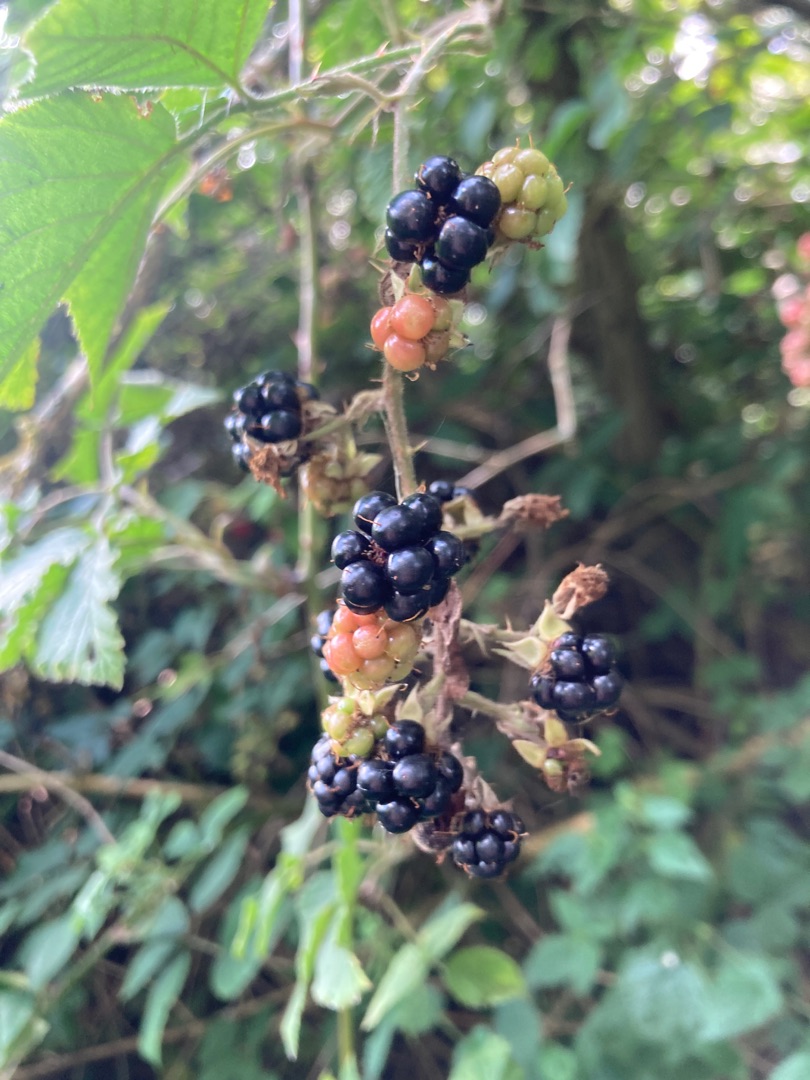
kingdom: Plantae
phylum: Tracheophyta
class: Magnoliopsida
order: Rosales
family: Rosaceae
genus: Rubus
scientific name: Rubus
